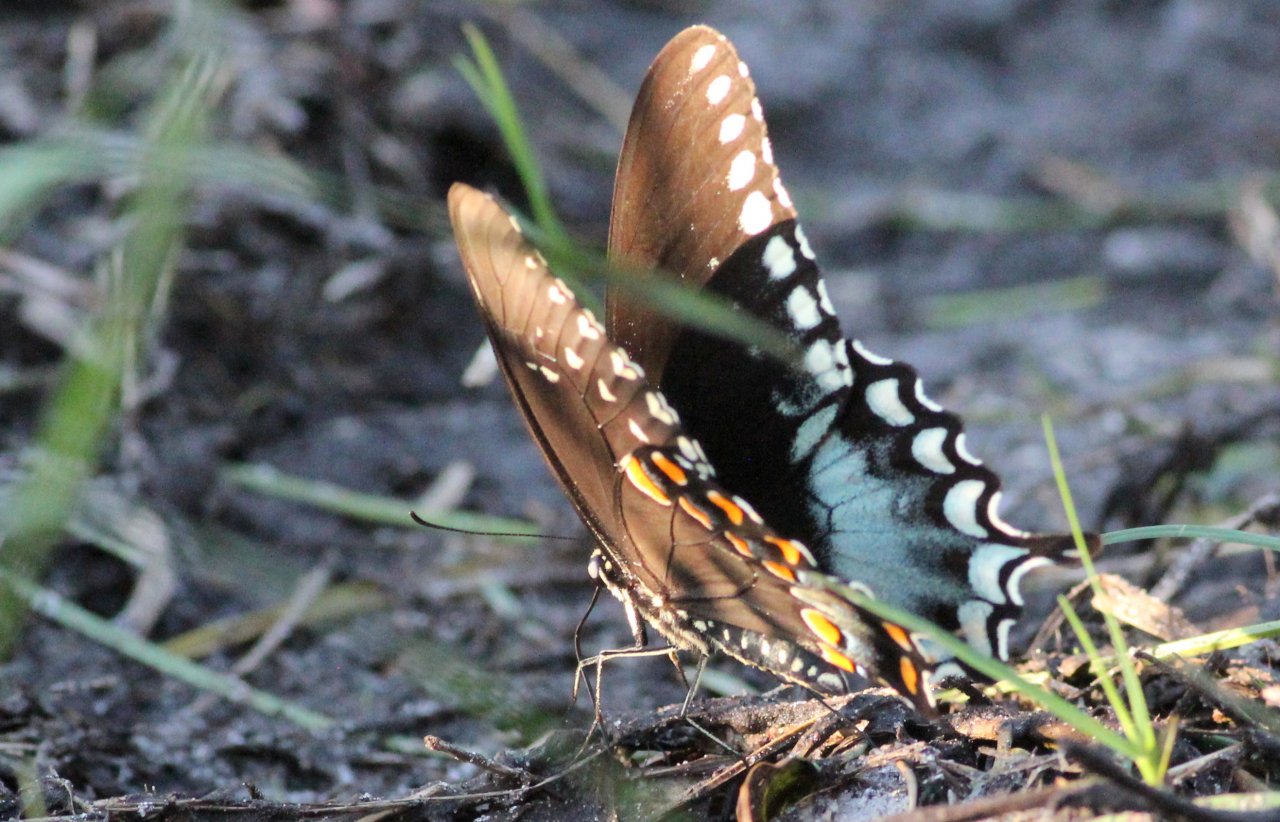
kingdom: Animalia
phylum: Arthropoda
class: Insecta
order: Lepidoptera
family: Papilionidae
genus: Pterourus
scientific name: Pterourus troilus
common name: Spicebush Swallowtail
